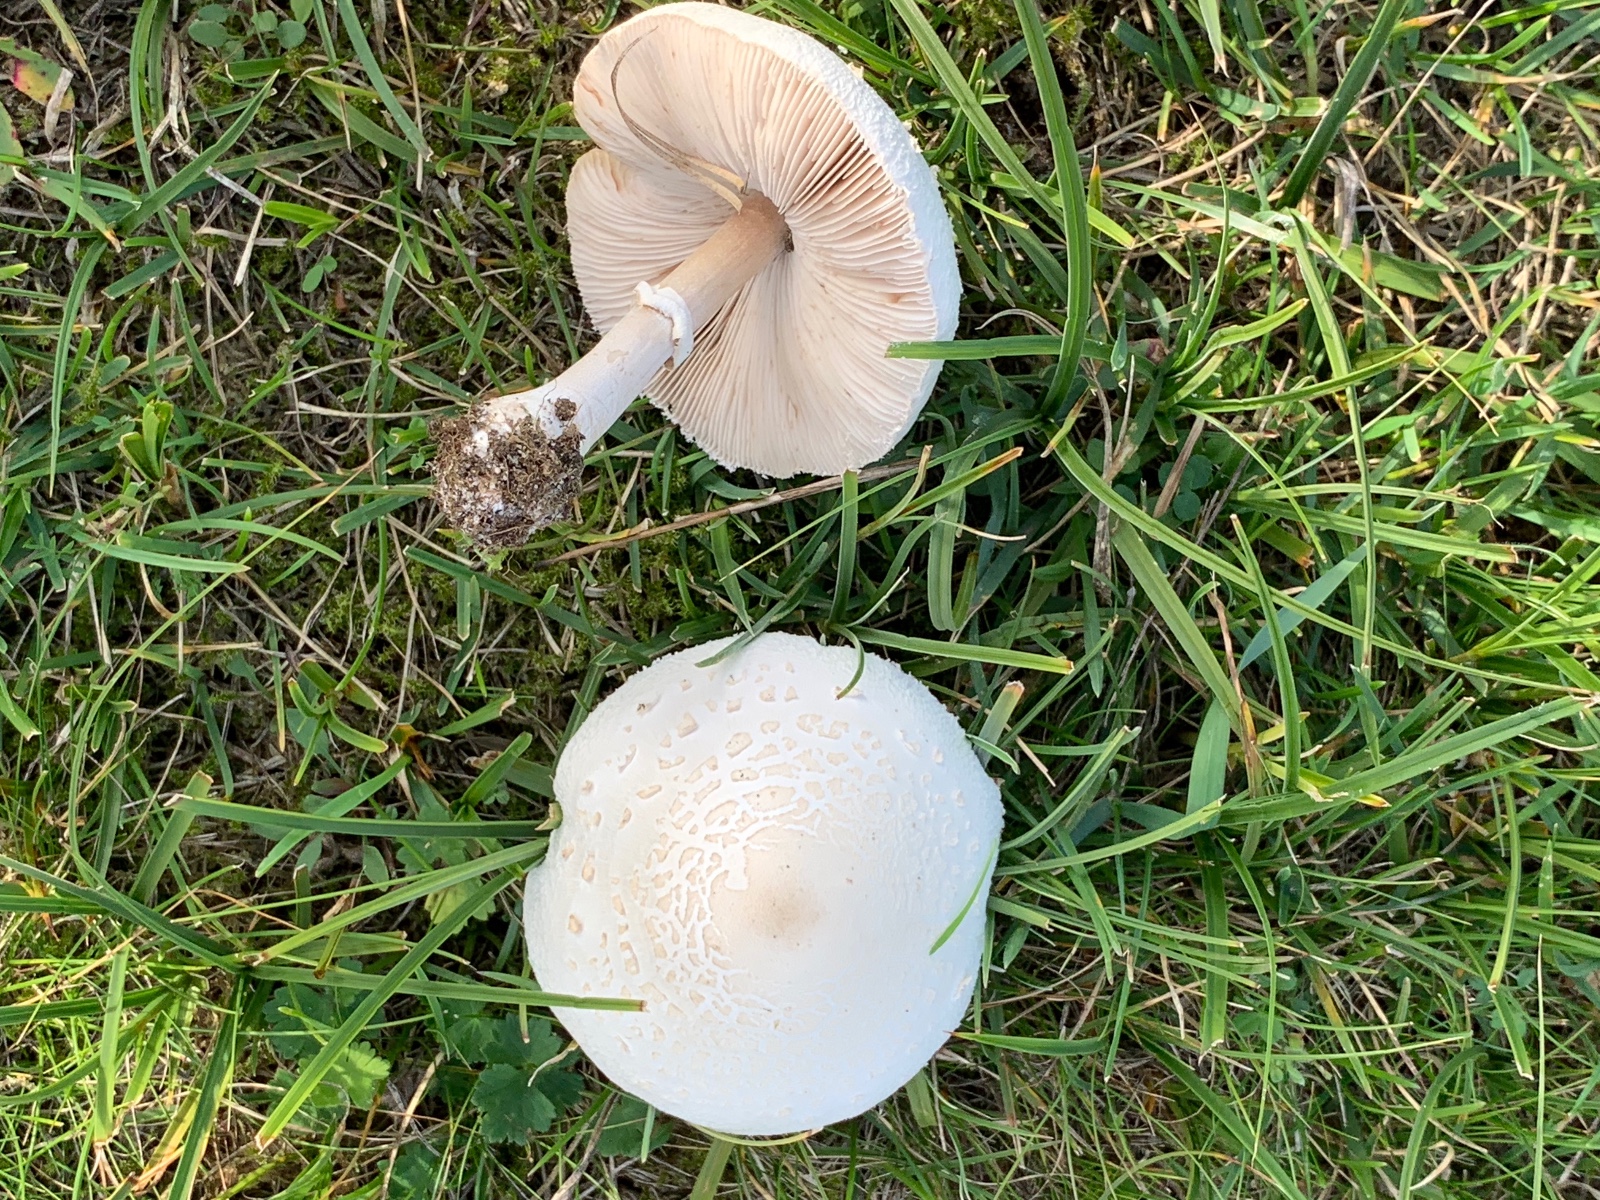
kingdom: Fungi
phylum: Basidiomycota
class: Agaricomycetes
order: Agaricales
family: Agaricaceae
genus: Lepiota
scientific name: Lepiota erminea
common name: hvid parasolhat
